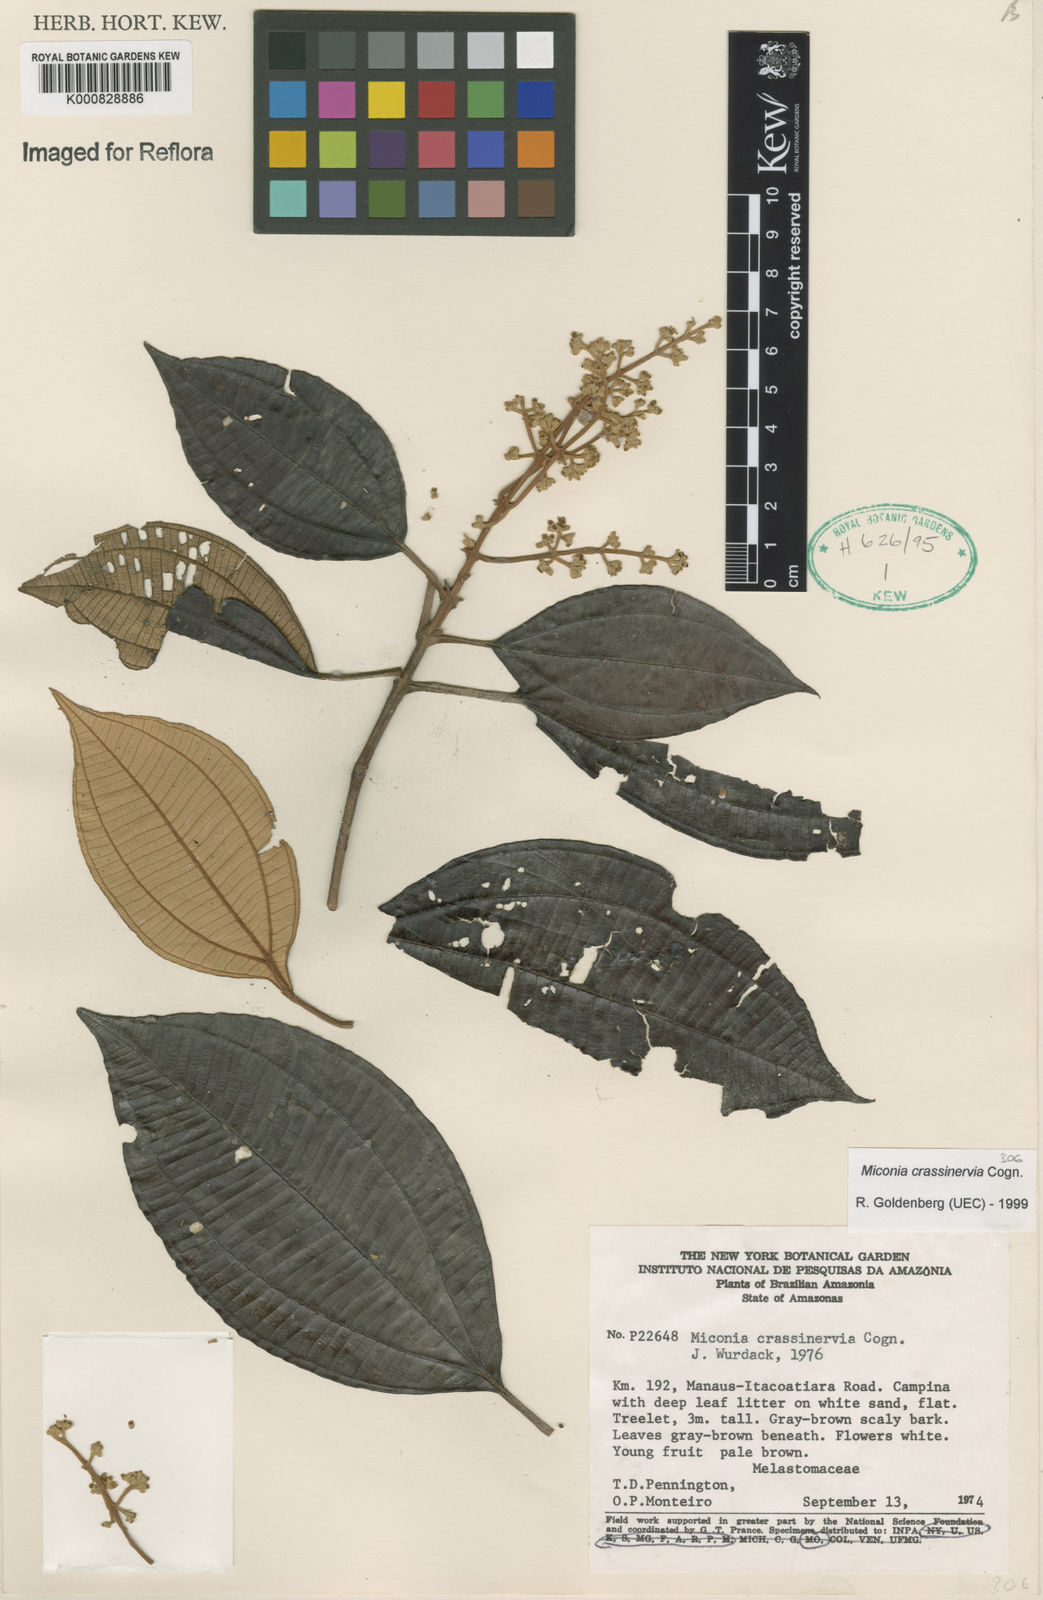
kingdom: Plantae
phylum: Tracheophyta
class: Magnoliopsida
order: Myrtales
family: Melastomataceae
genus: Miconia
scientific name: Miconia crassinervia
